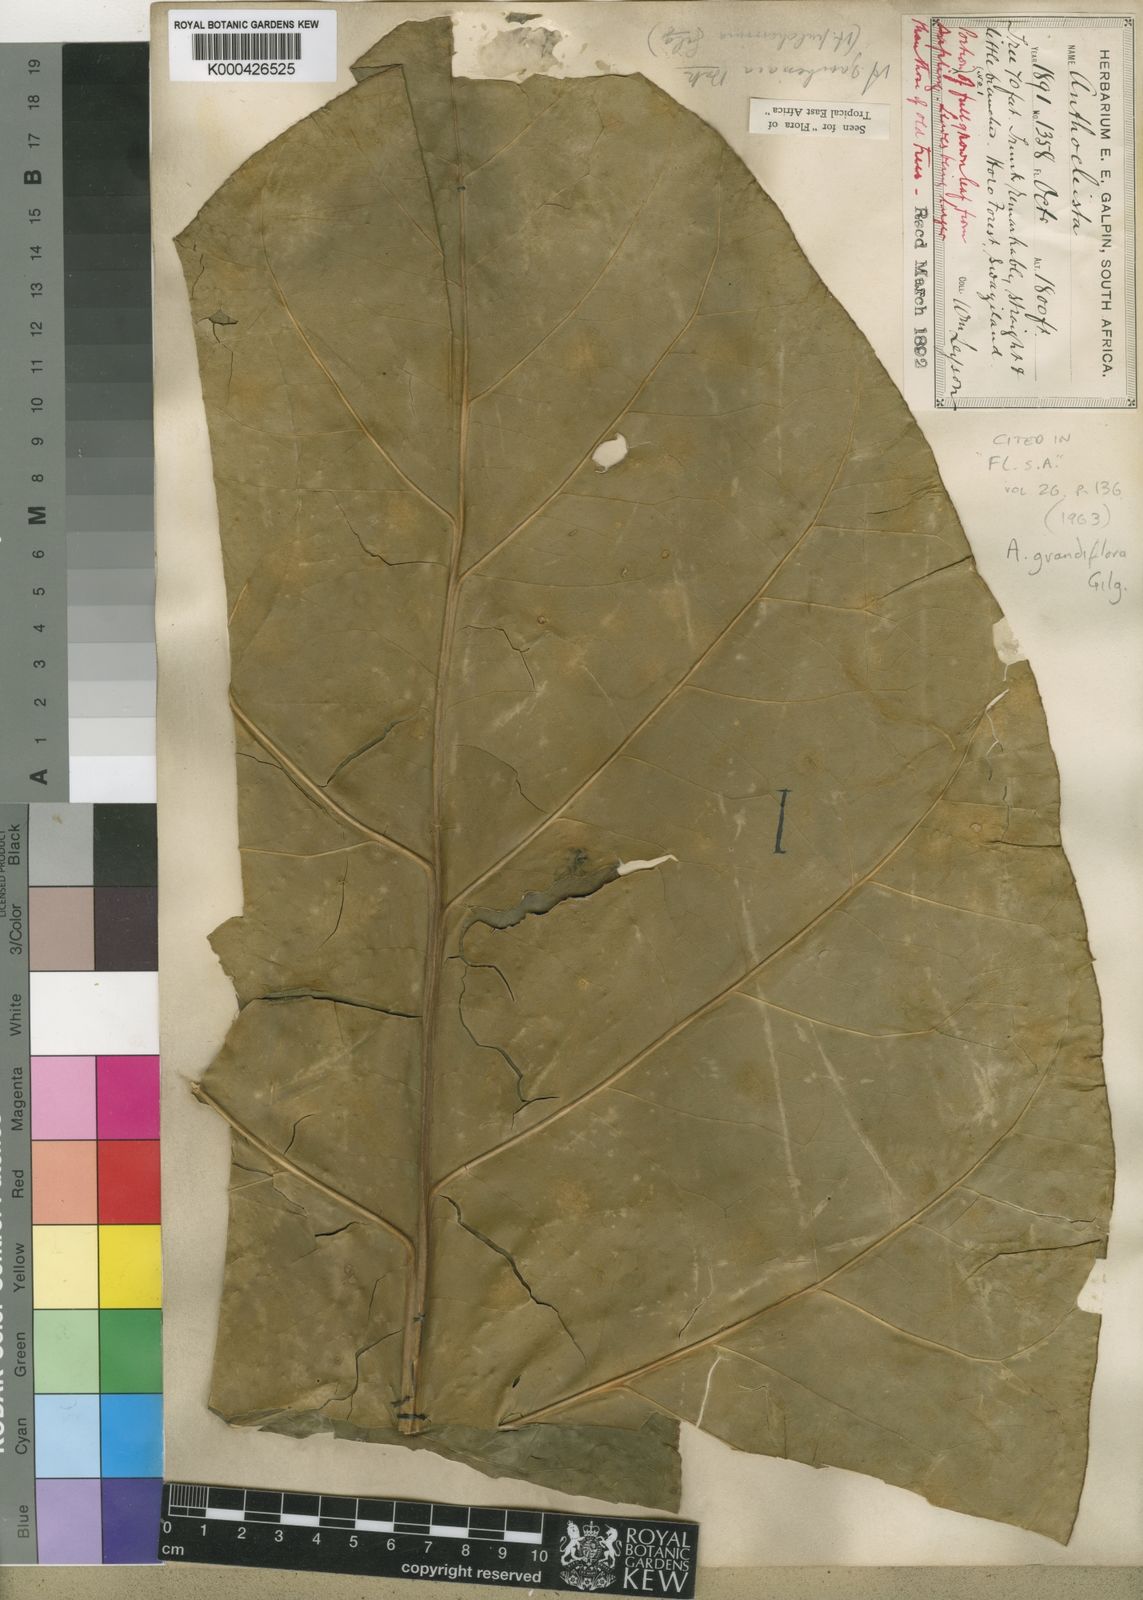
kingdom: Plantae
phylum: Tracheophyta
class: Magnoliopsida
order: Gentianales
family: Gentianaceae
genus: Anthocleista
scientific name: Anthocleista grandiflora
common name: Forest big-leaf
